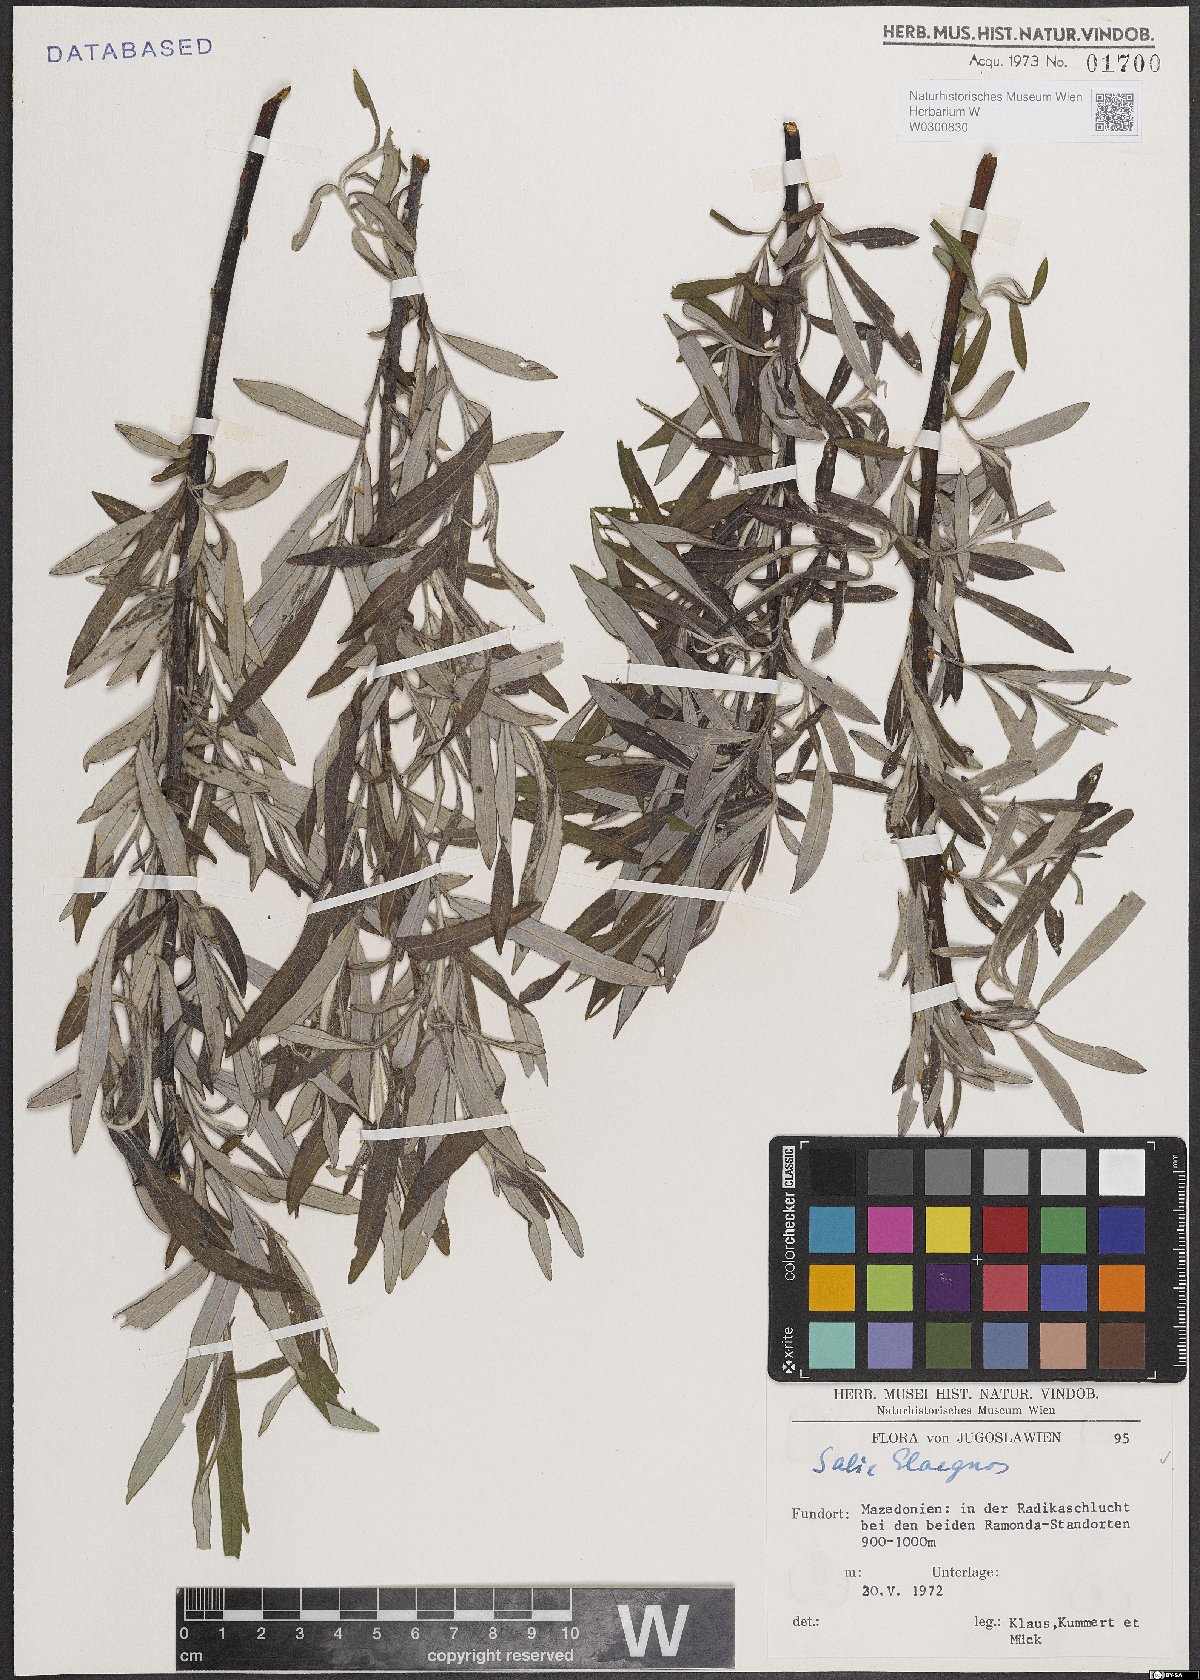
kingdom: Plantae
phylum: Tracheophyta
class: Magnoliopsida
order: Malpighiales
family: Salicaceae
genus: Salix
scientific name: Salix eleagnos
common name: Elaeagnus willow
